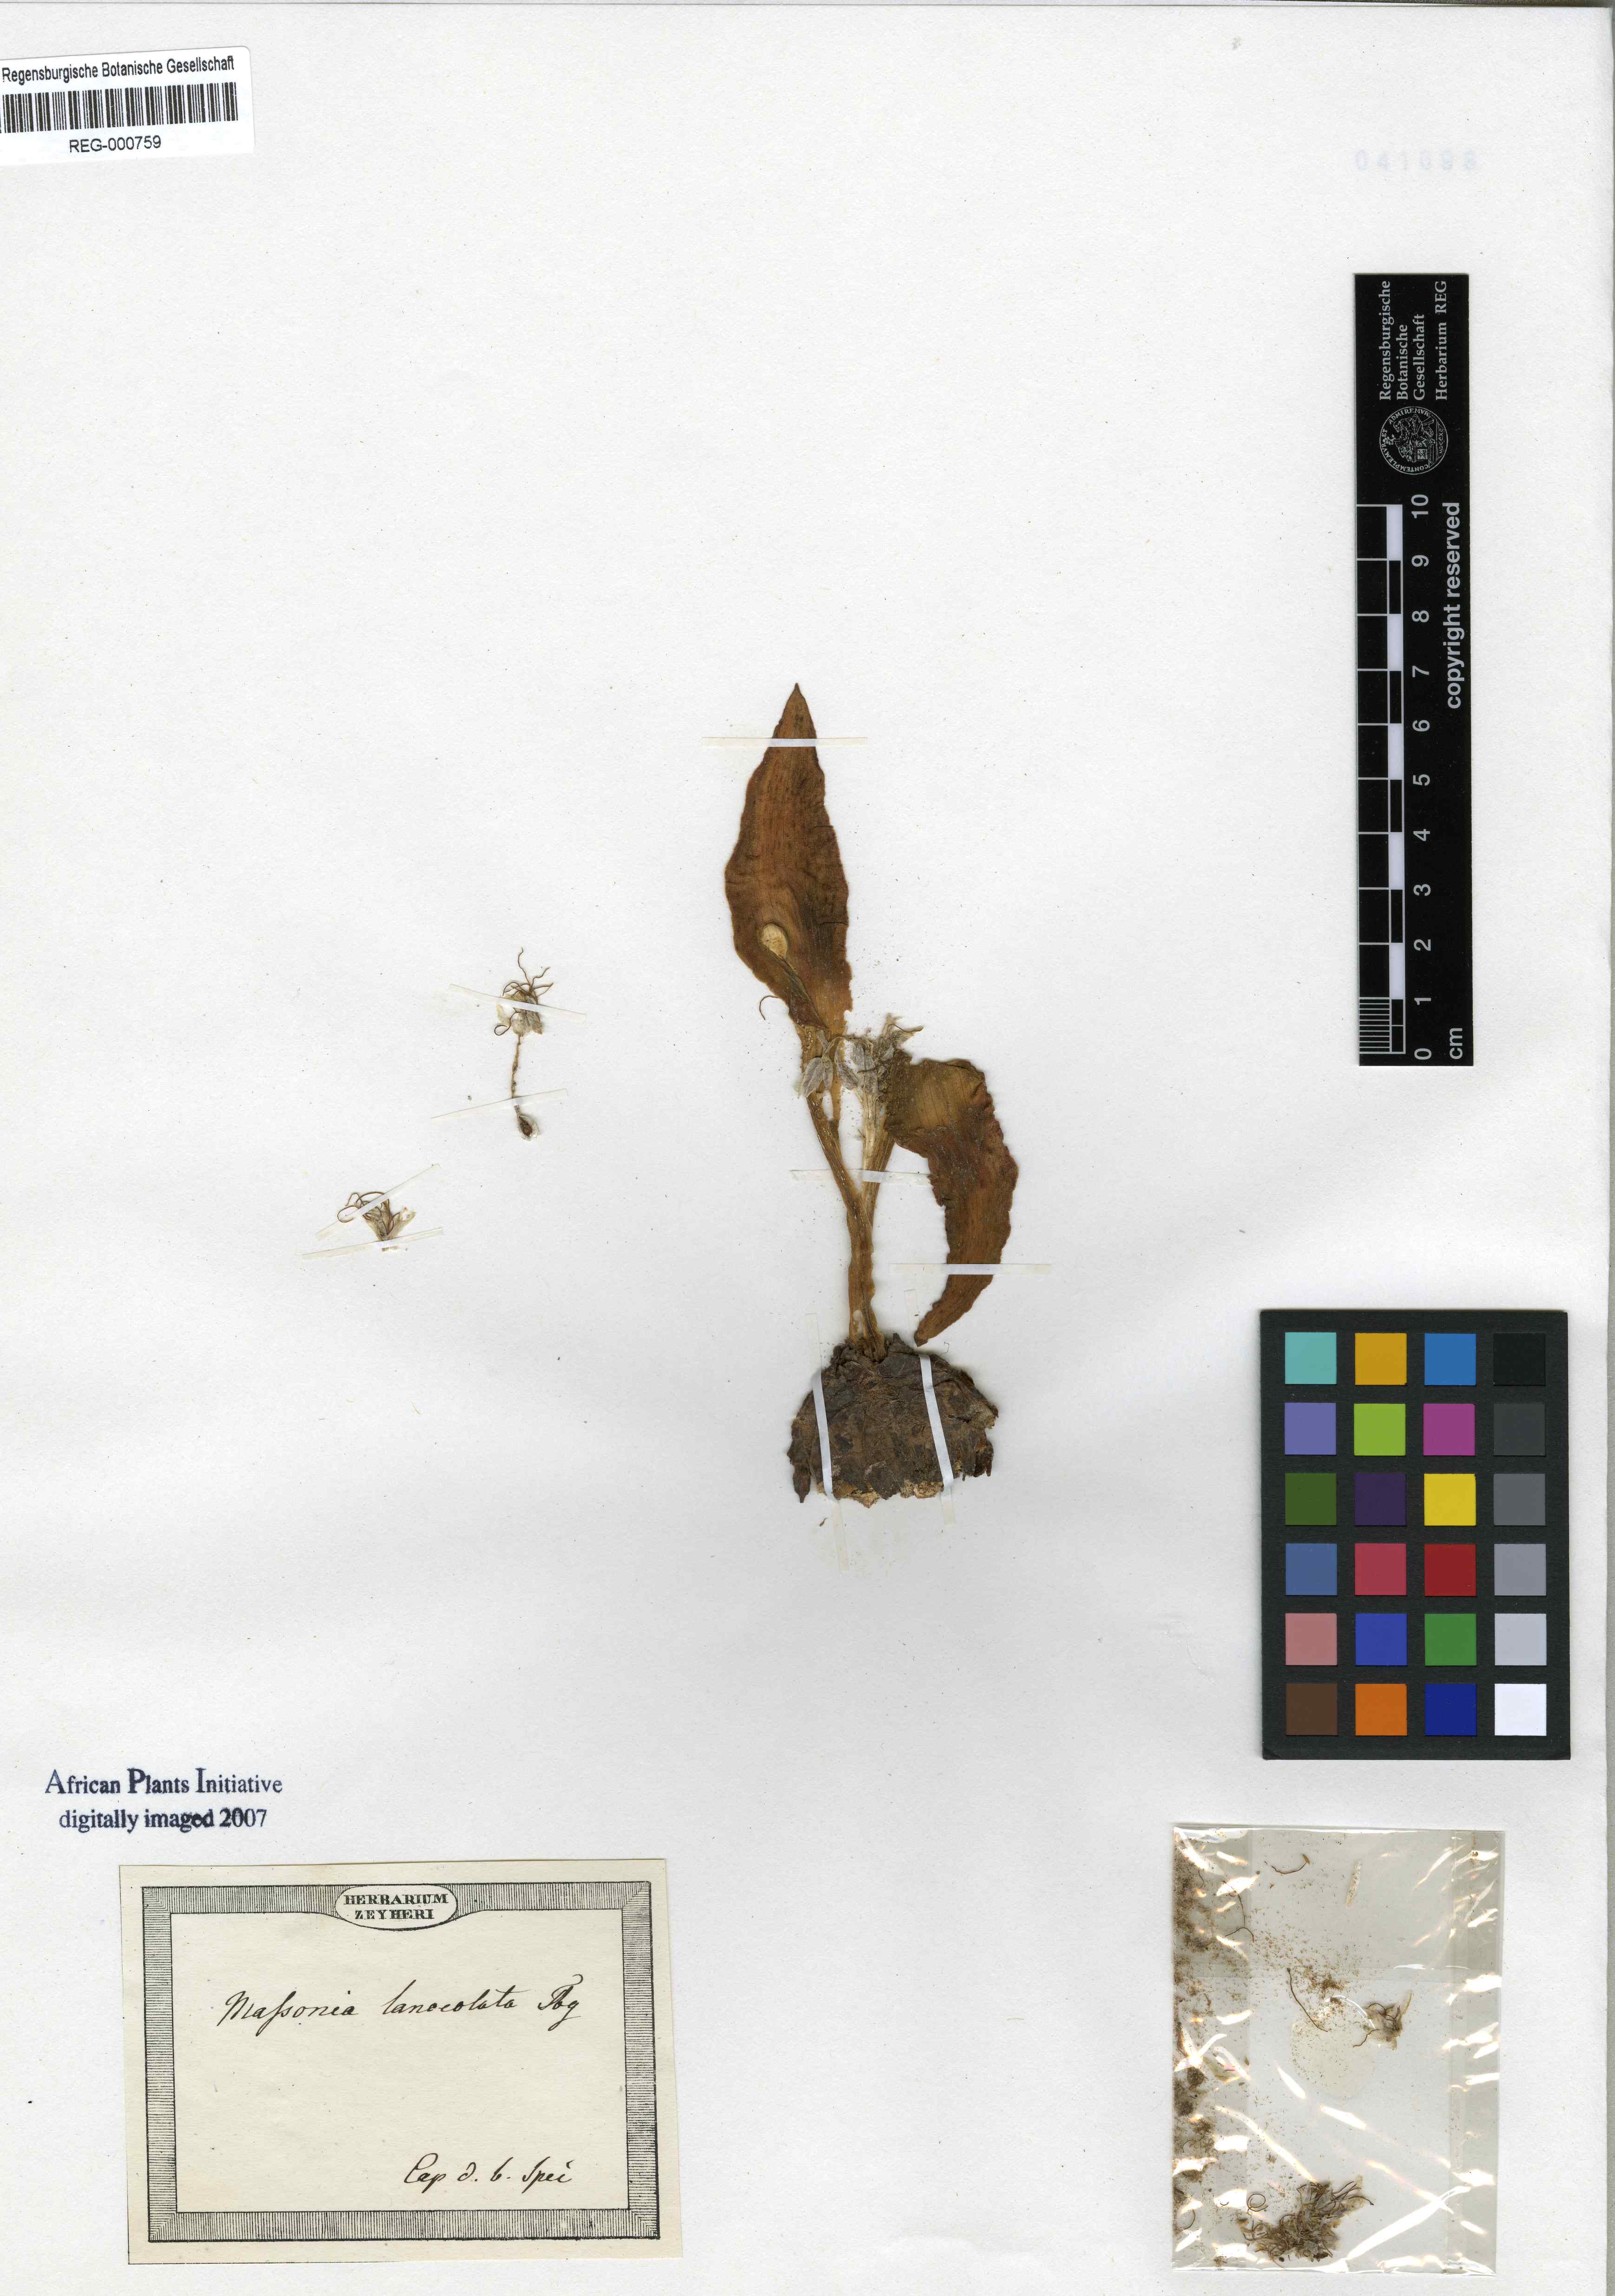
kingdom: Plantae
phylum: Tracheophyta
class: Liliopsida
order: Asparagales
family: Asparagaceae
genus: Massonia
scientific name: Massonia angustifolia
